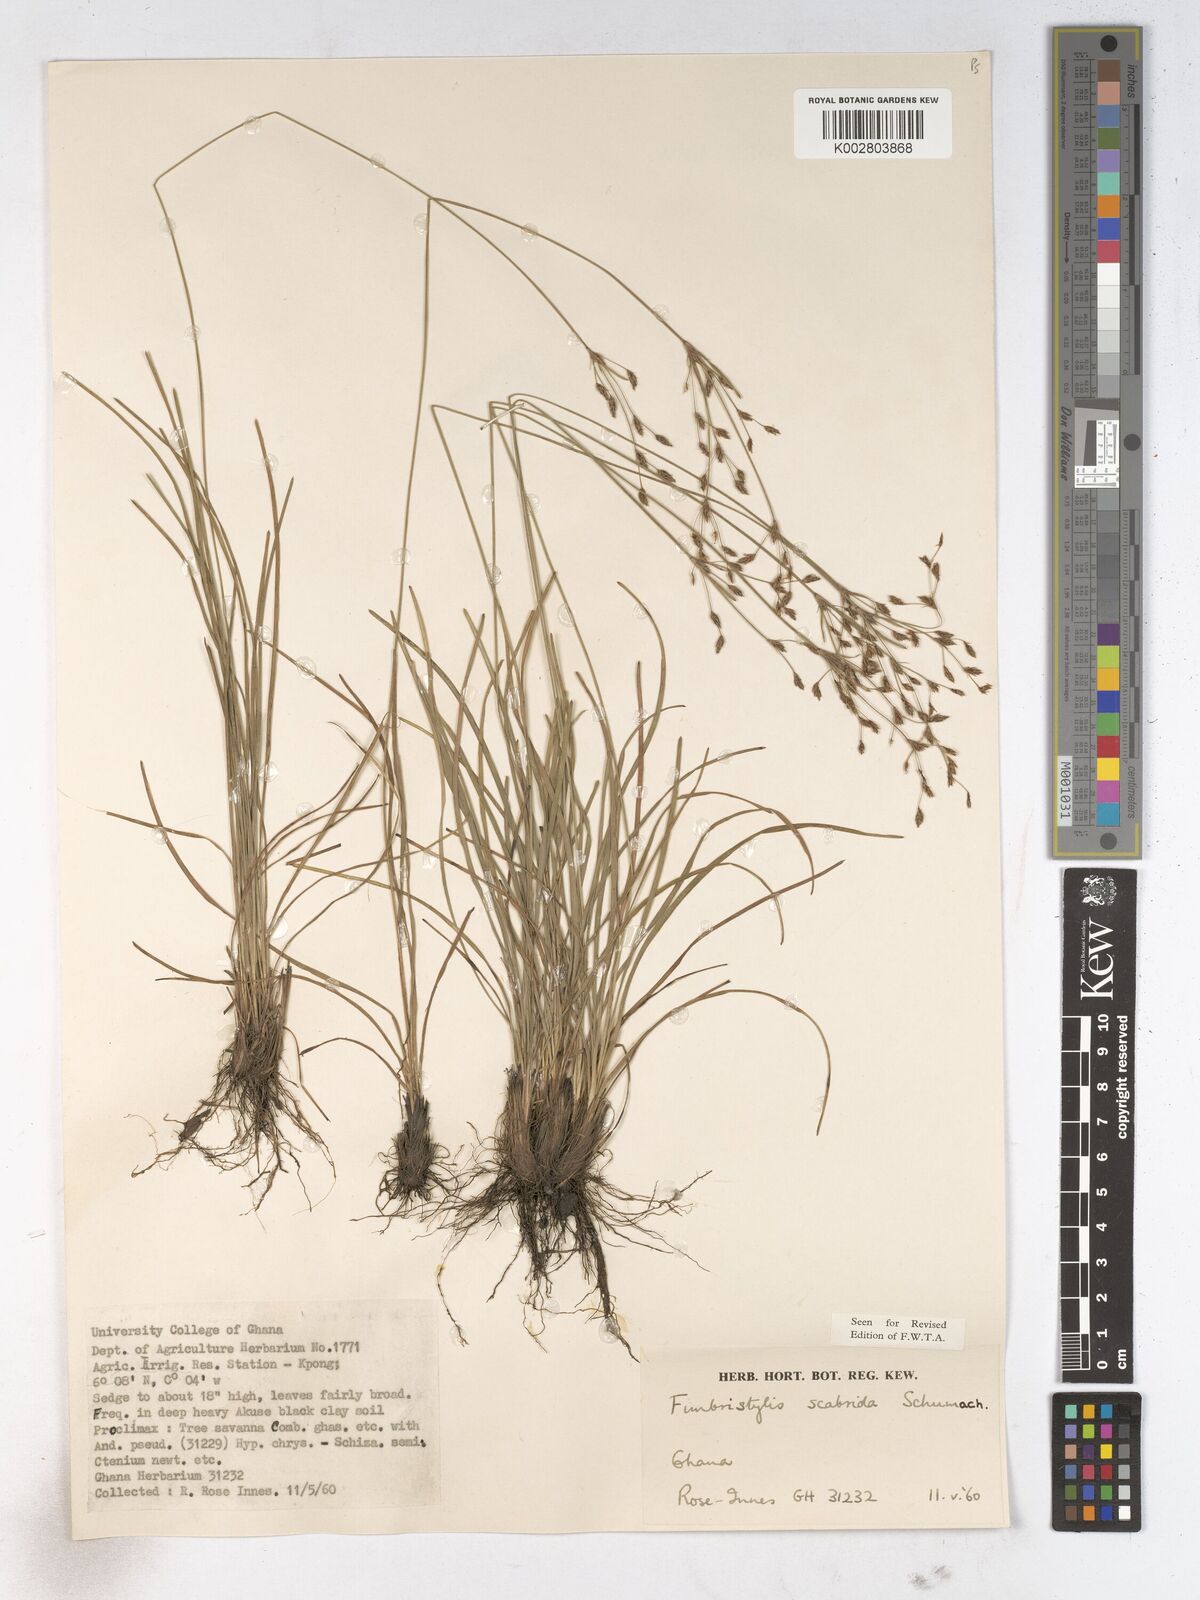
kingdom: Plantae
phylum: Tracheophyta
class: Liliopsida
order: Poales
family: Cyperaceae
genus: Fimbristylis
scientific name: Fimbristylis scabrida
